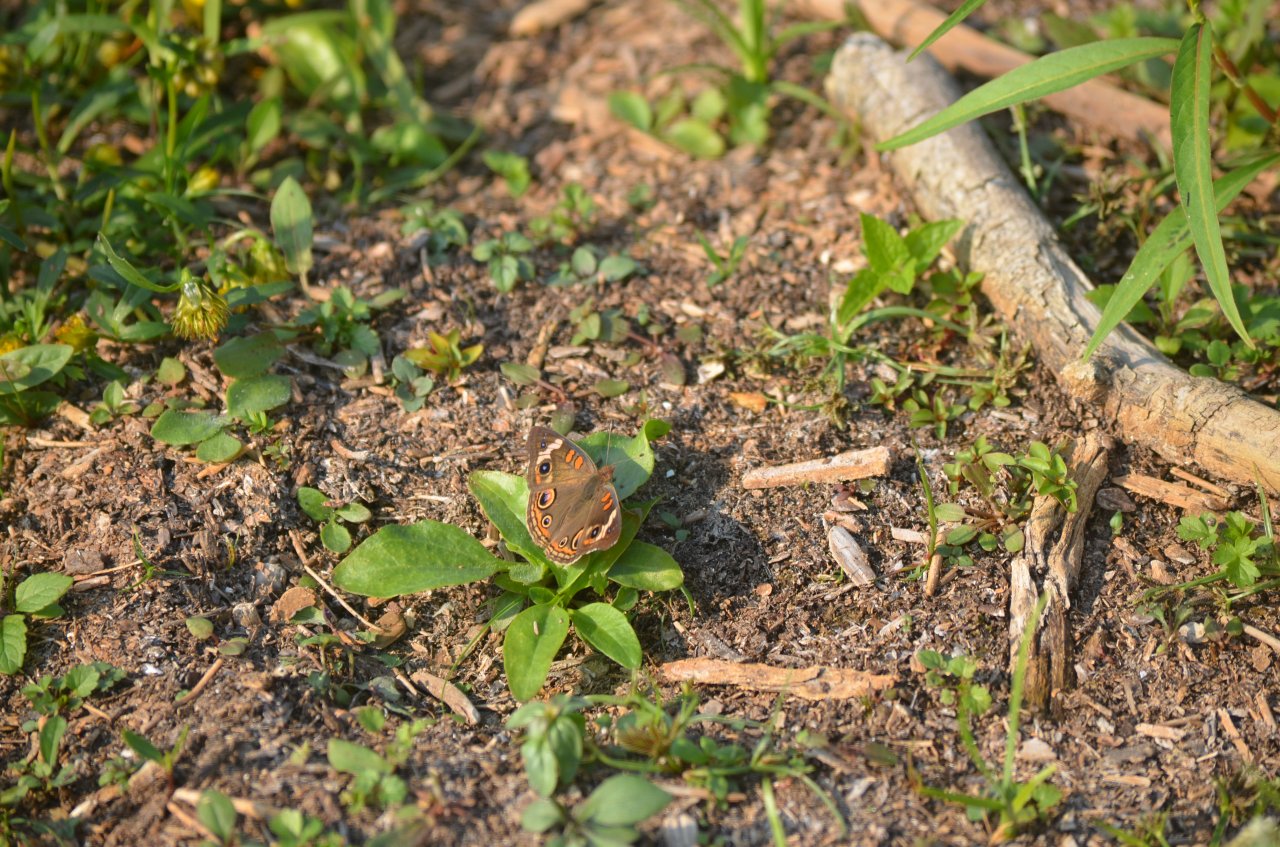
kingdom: Animalia
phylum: Arthropoda
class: Insecta
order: Lepidoptera
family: Nymphalidae
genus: Junonia
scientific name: Junonia coenia
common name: Common Buckeye
